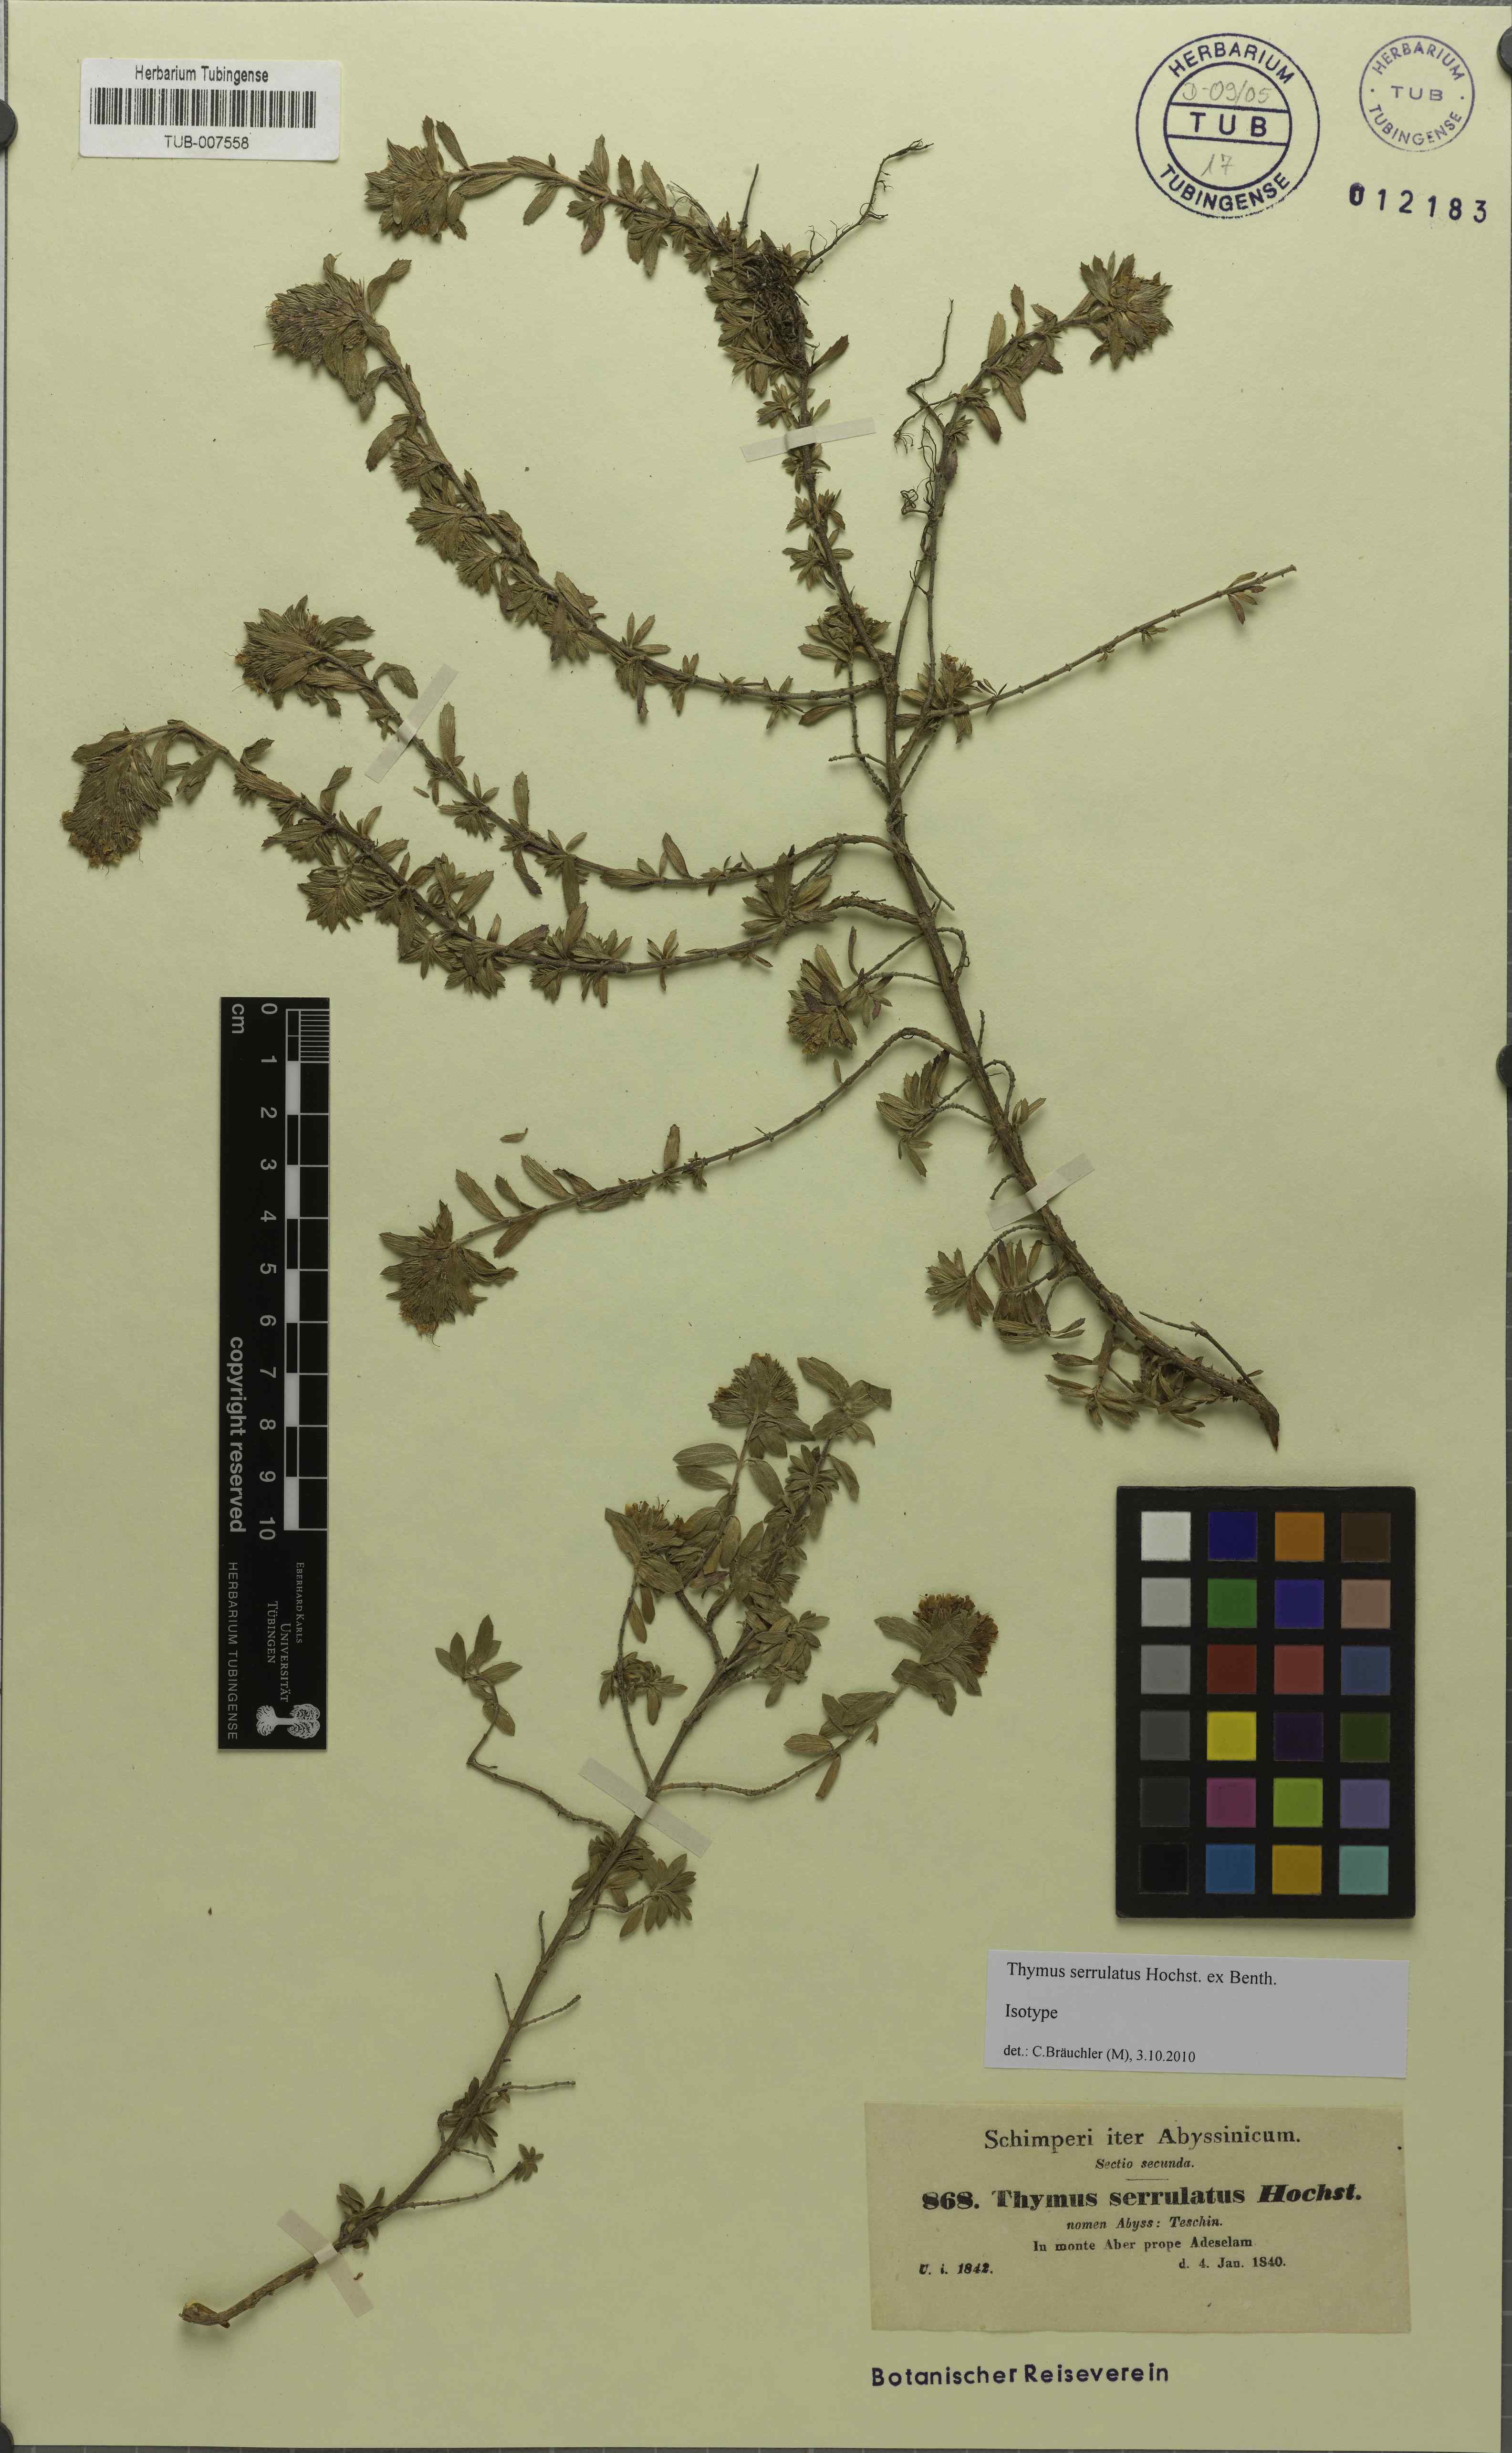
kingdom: Plantae
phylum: Tracheophyta
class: Magnoliopsida
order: Lamiales
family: Lamiaceae
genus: Thymus
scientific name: Thymus serrulatus
